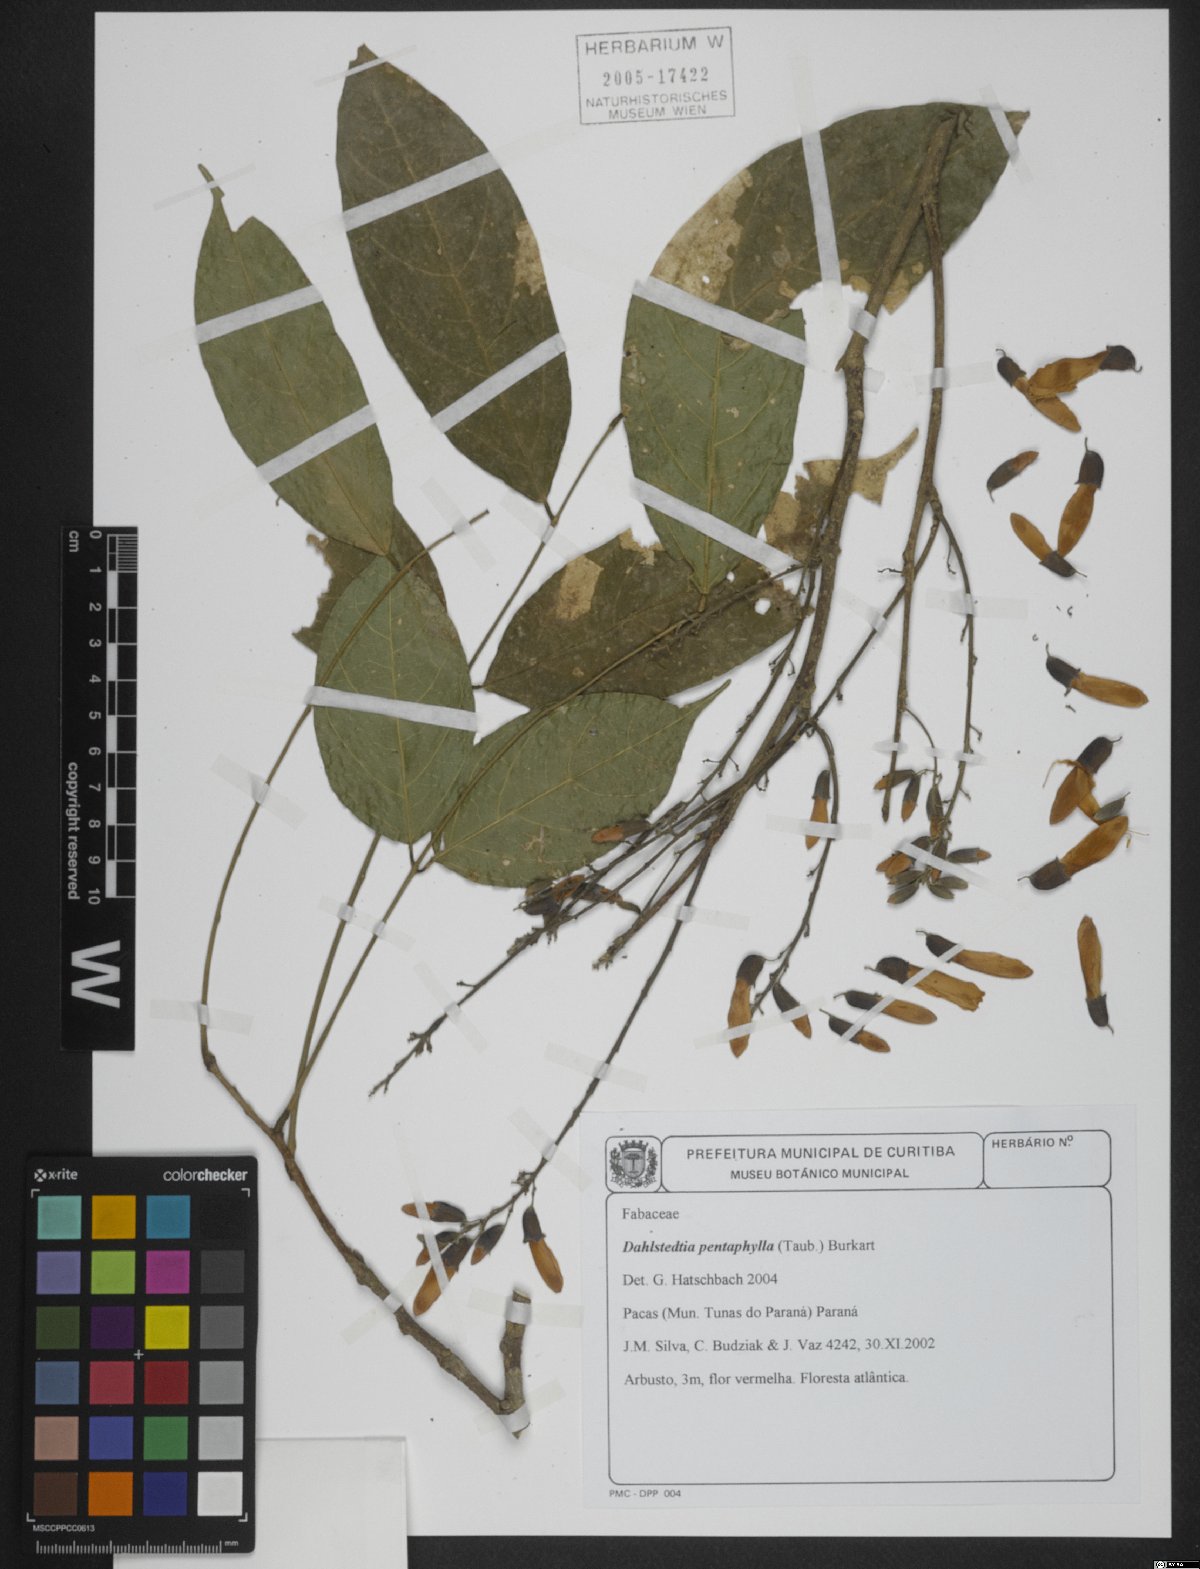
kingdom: Plantae
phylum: Tracheophyta
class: Magnoliopsida
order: Fabales
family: Fabaceae
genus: Dahlstedtia
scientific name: Dahlstedtia pentaphylla
